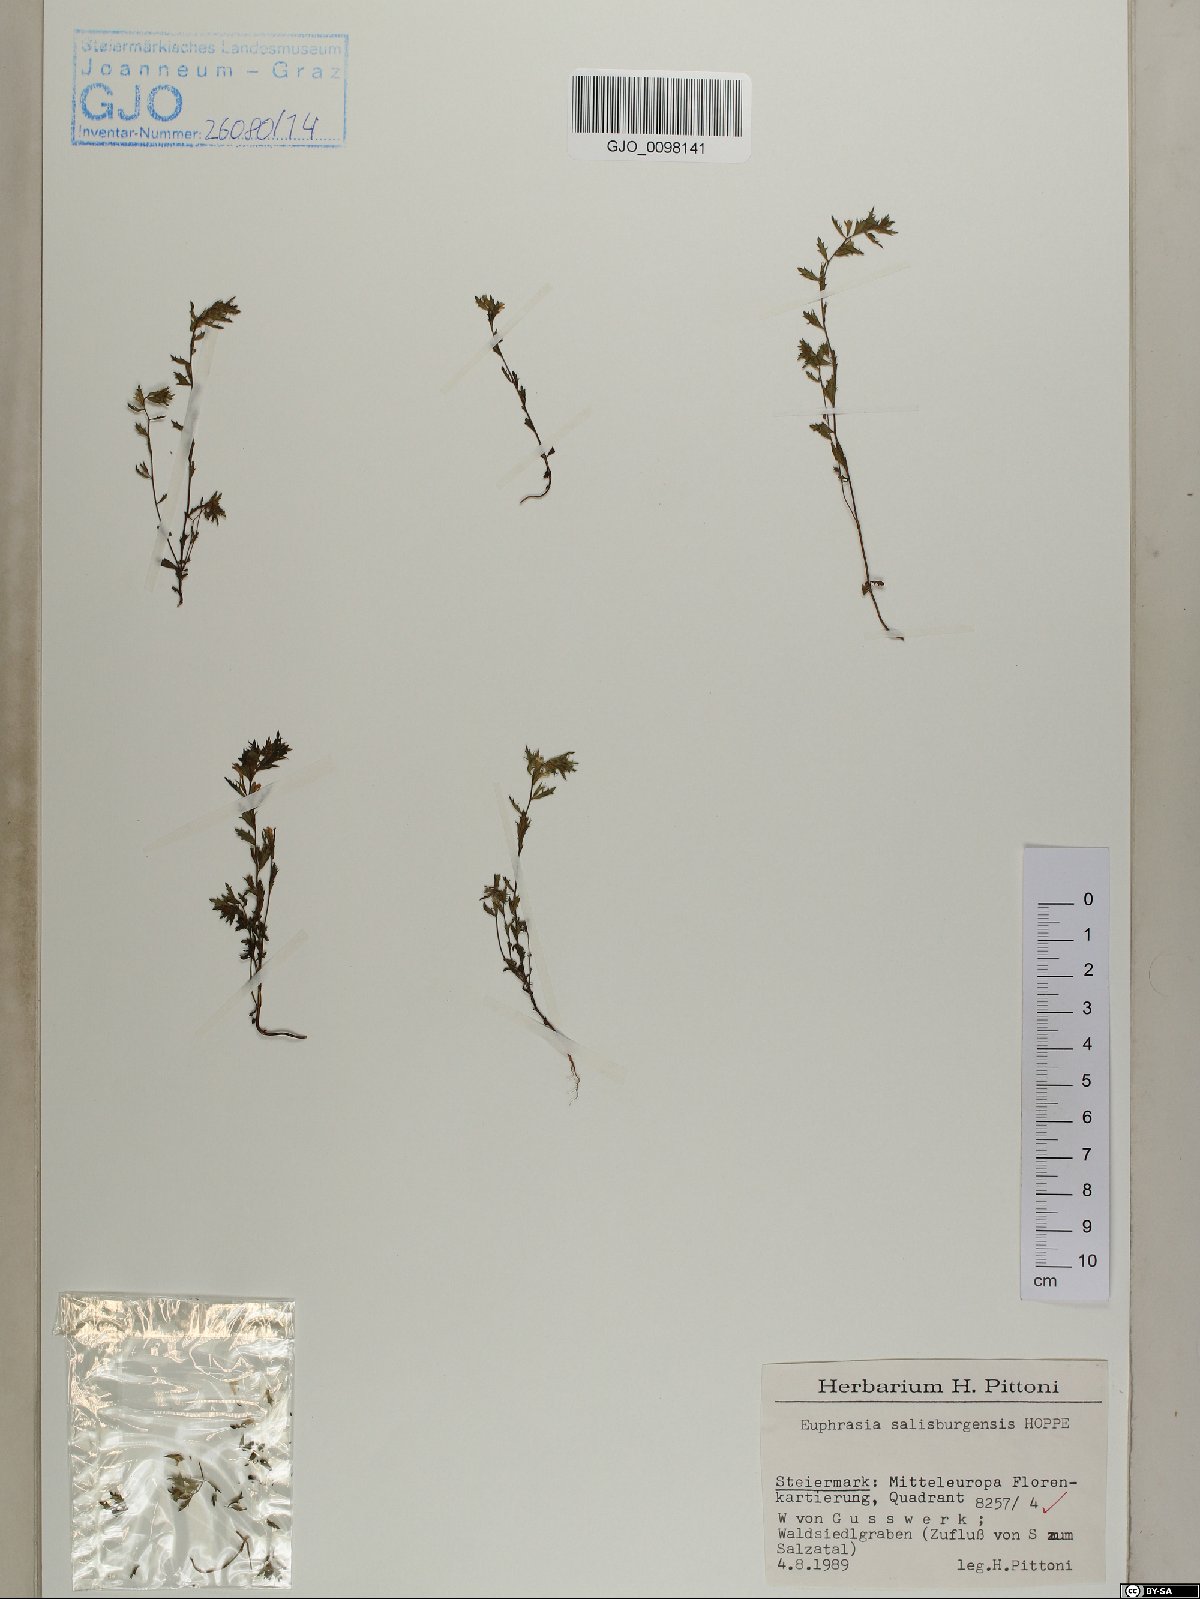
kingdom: Plantae
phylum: Tracheophyta
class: Magnoliopsida
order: Lamiales
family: Orobanchaceae
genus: Euphrasia
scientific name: Euphrasia salisburgensis
